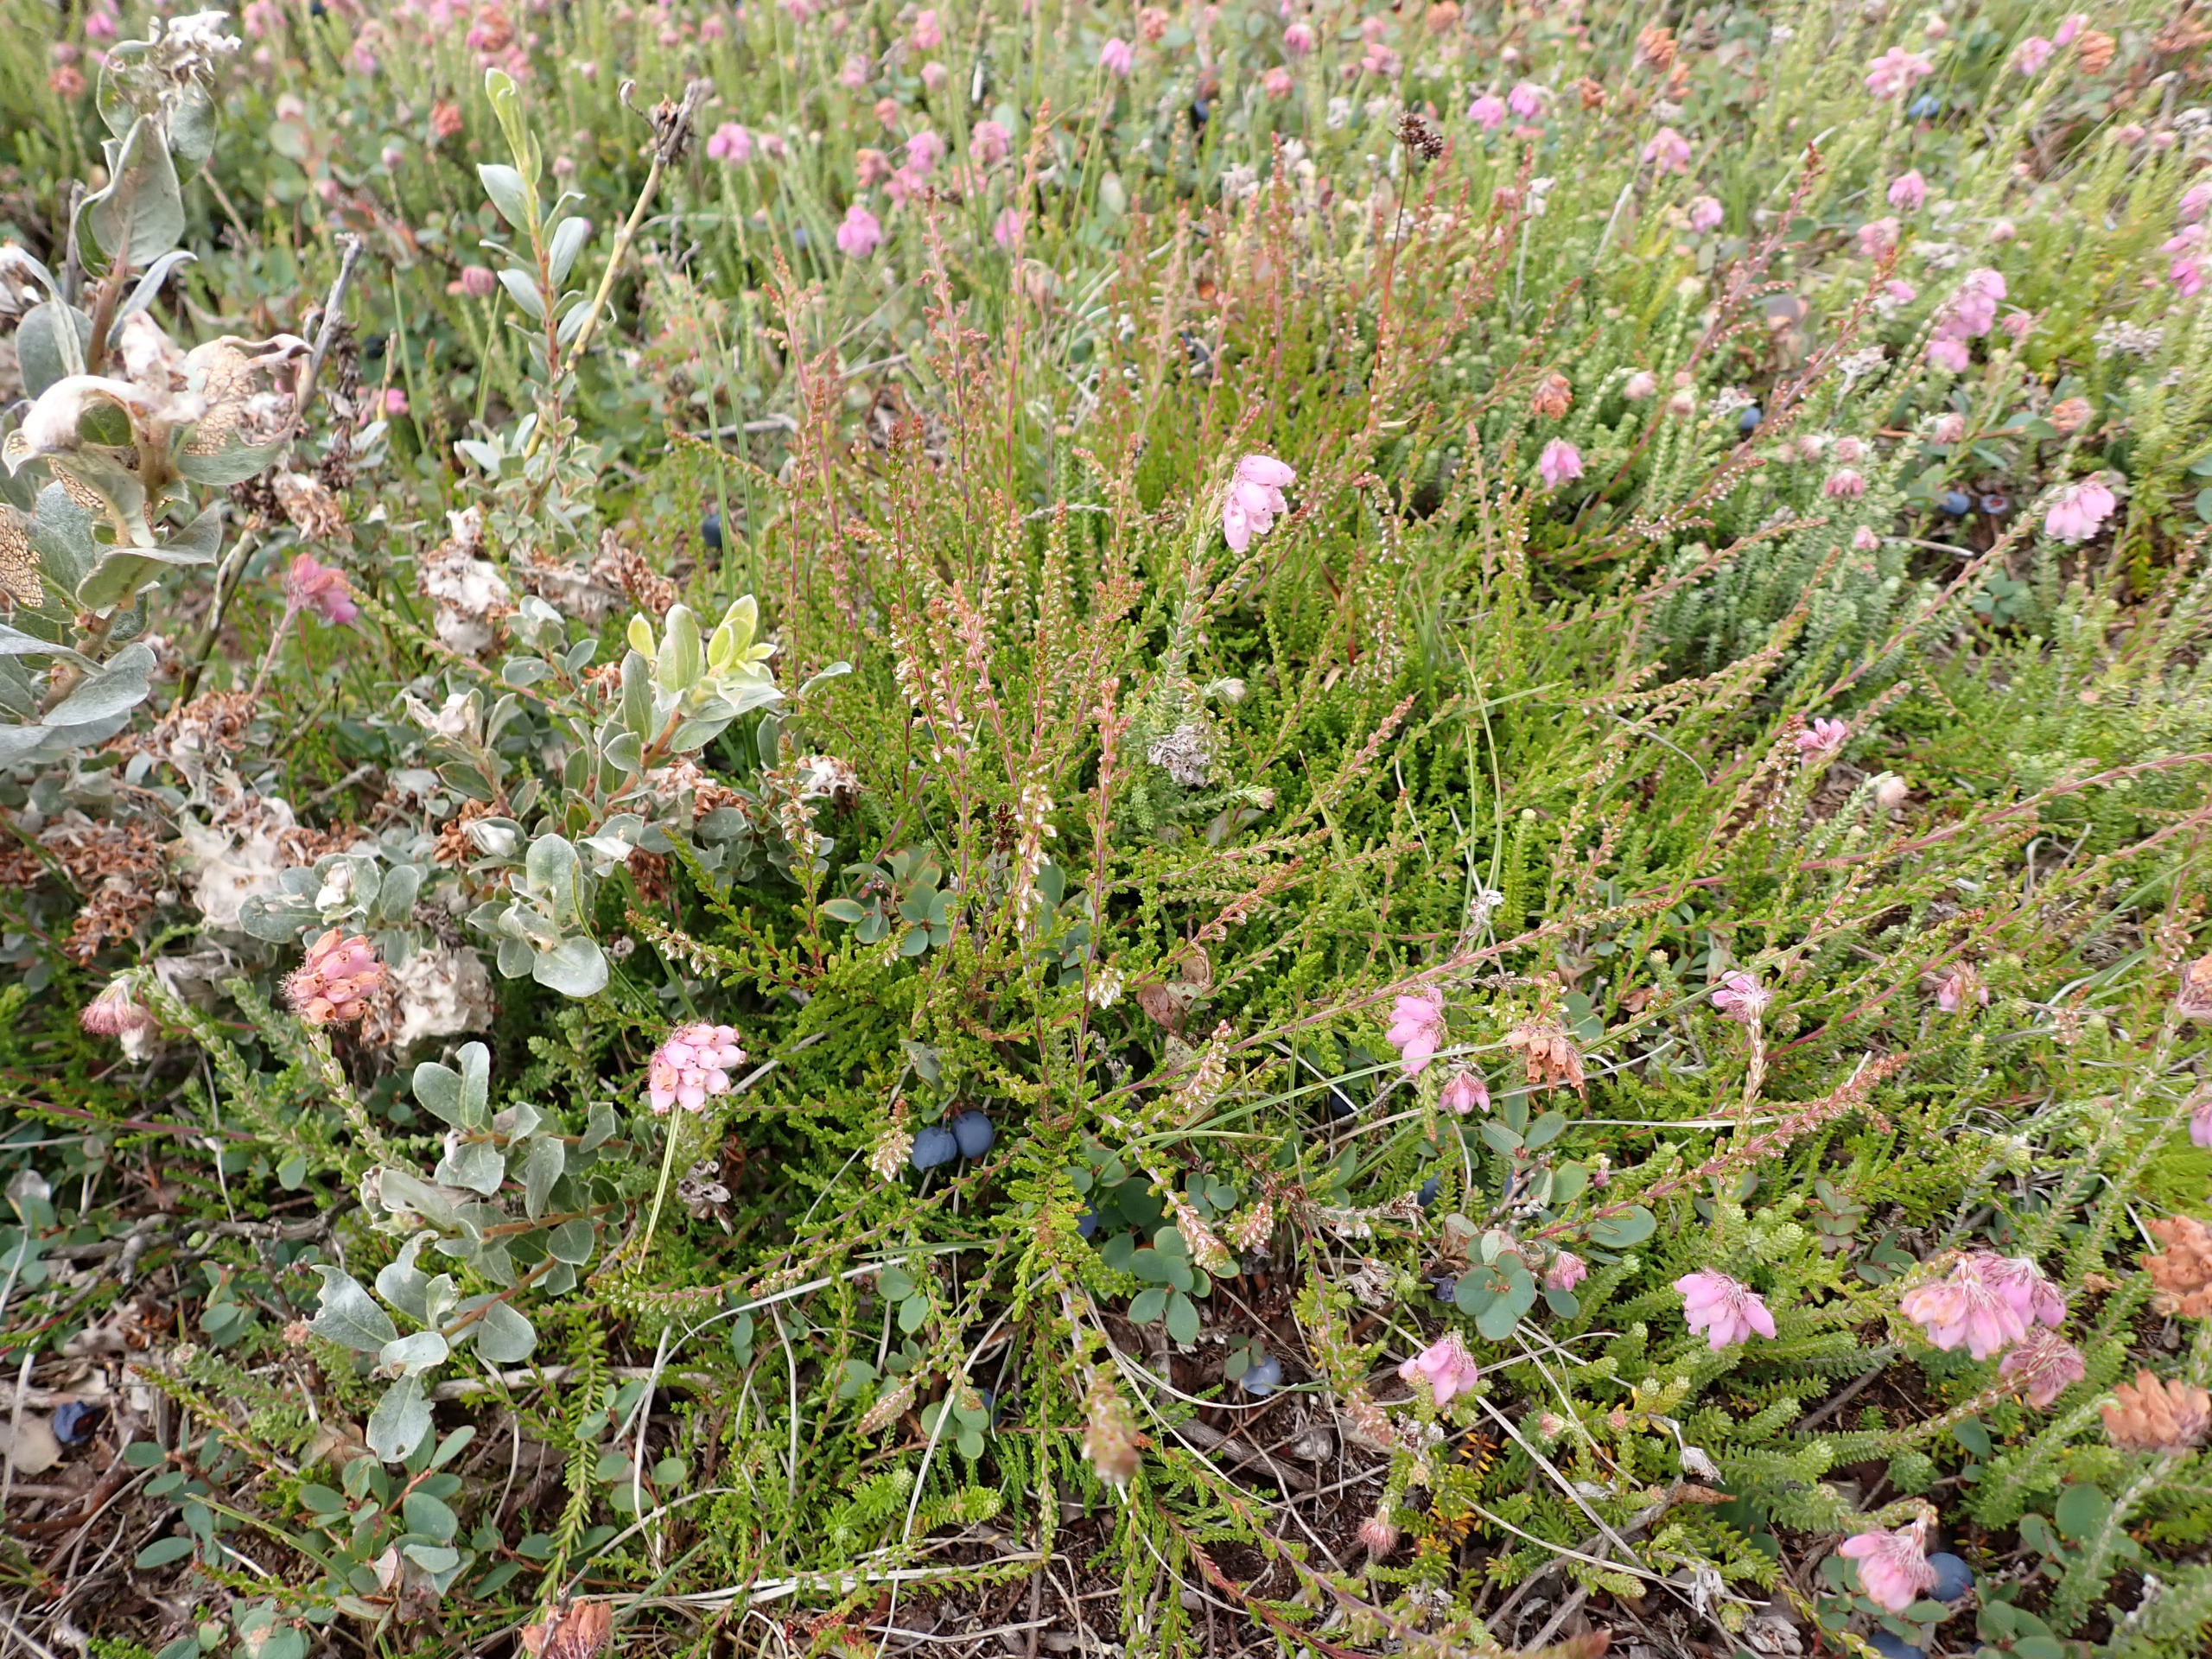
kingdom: Plantae
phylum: Tracheophyta
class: Magnoliopsida
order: Ericales
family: Ericaceae
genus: Calluna
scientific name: Calluna vulgaris
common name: Hedelyng
